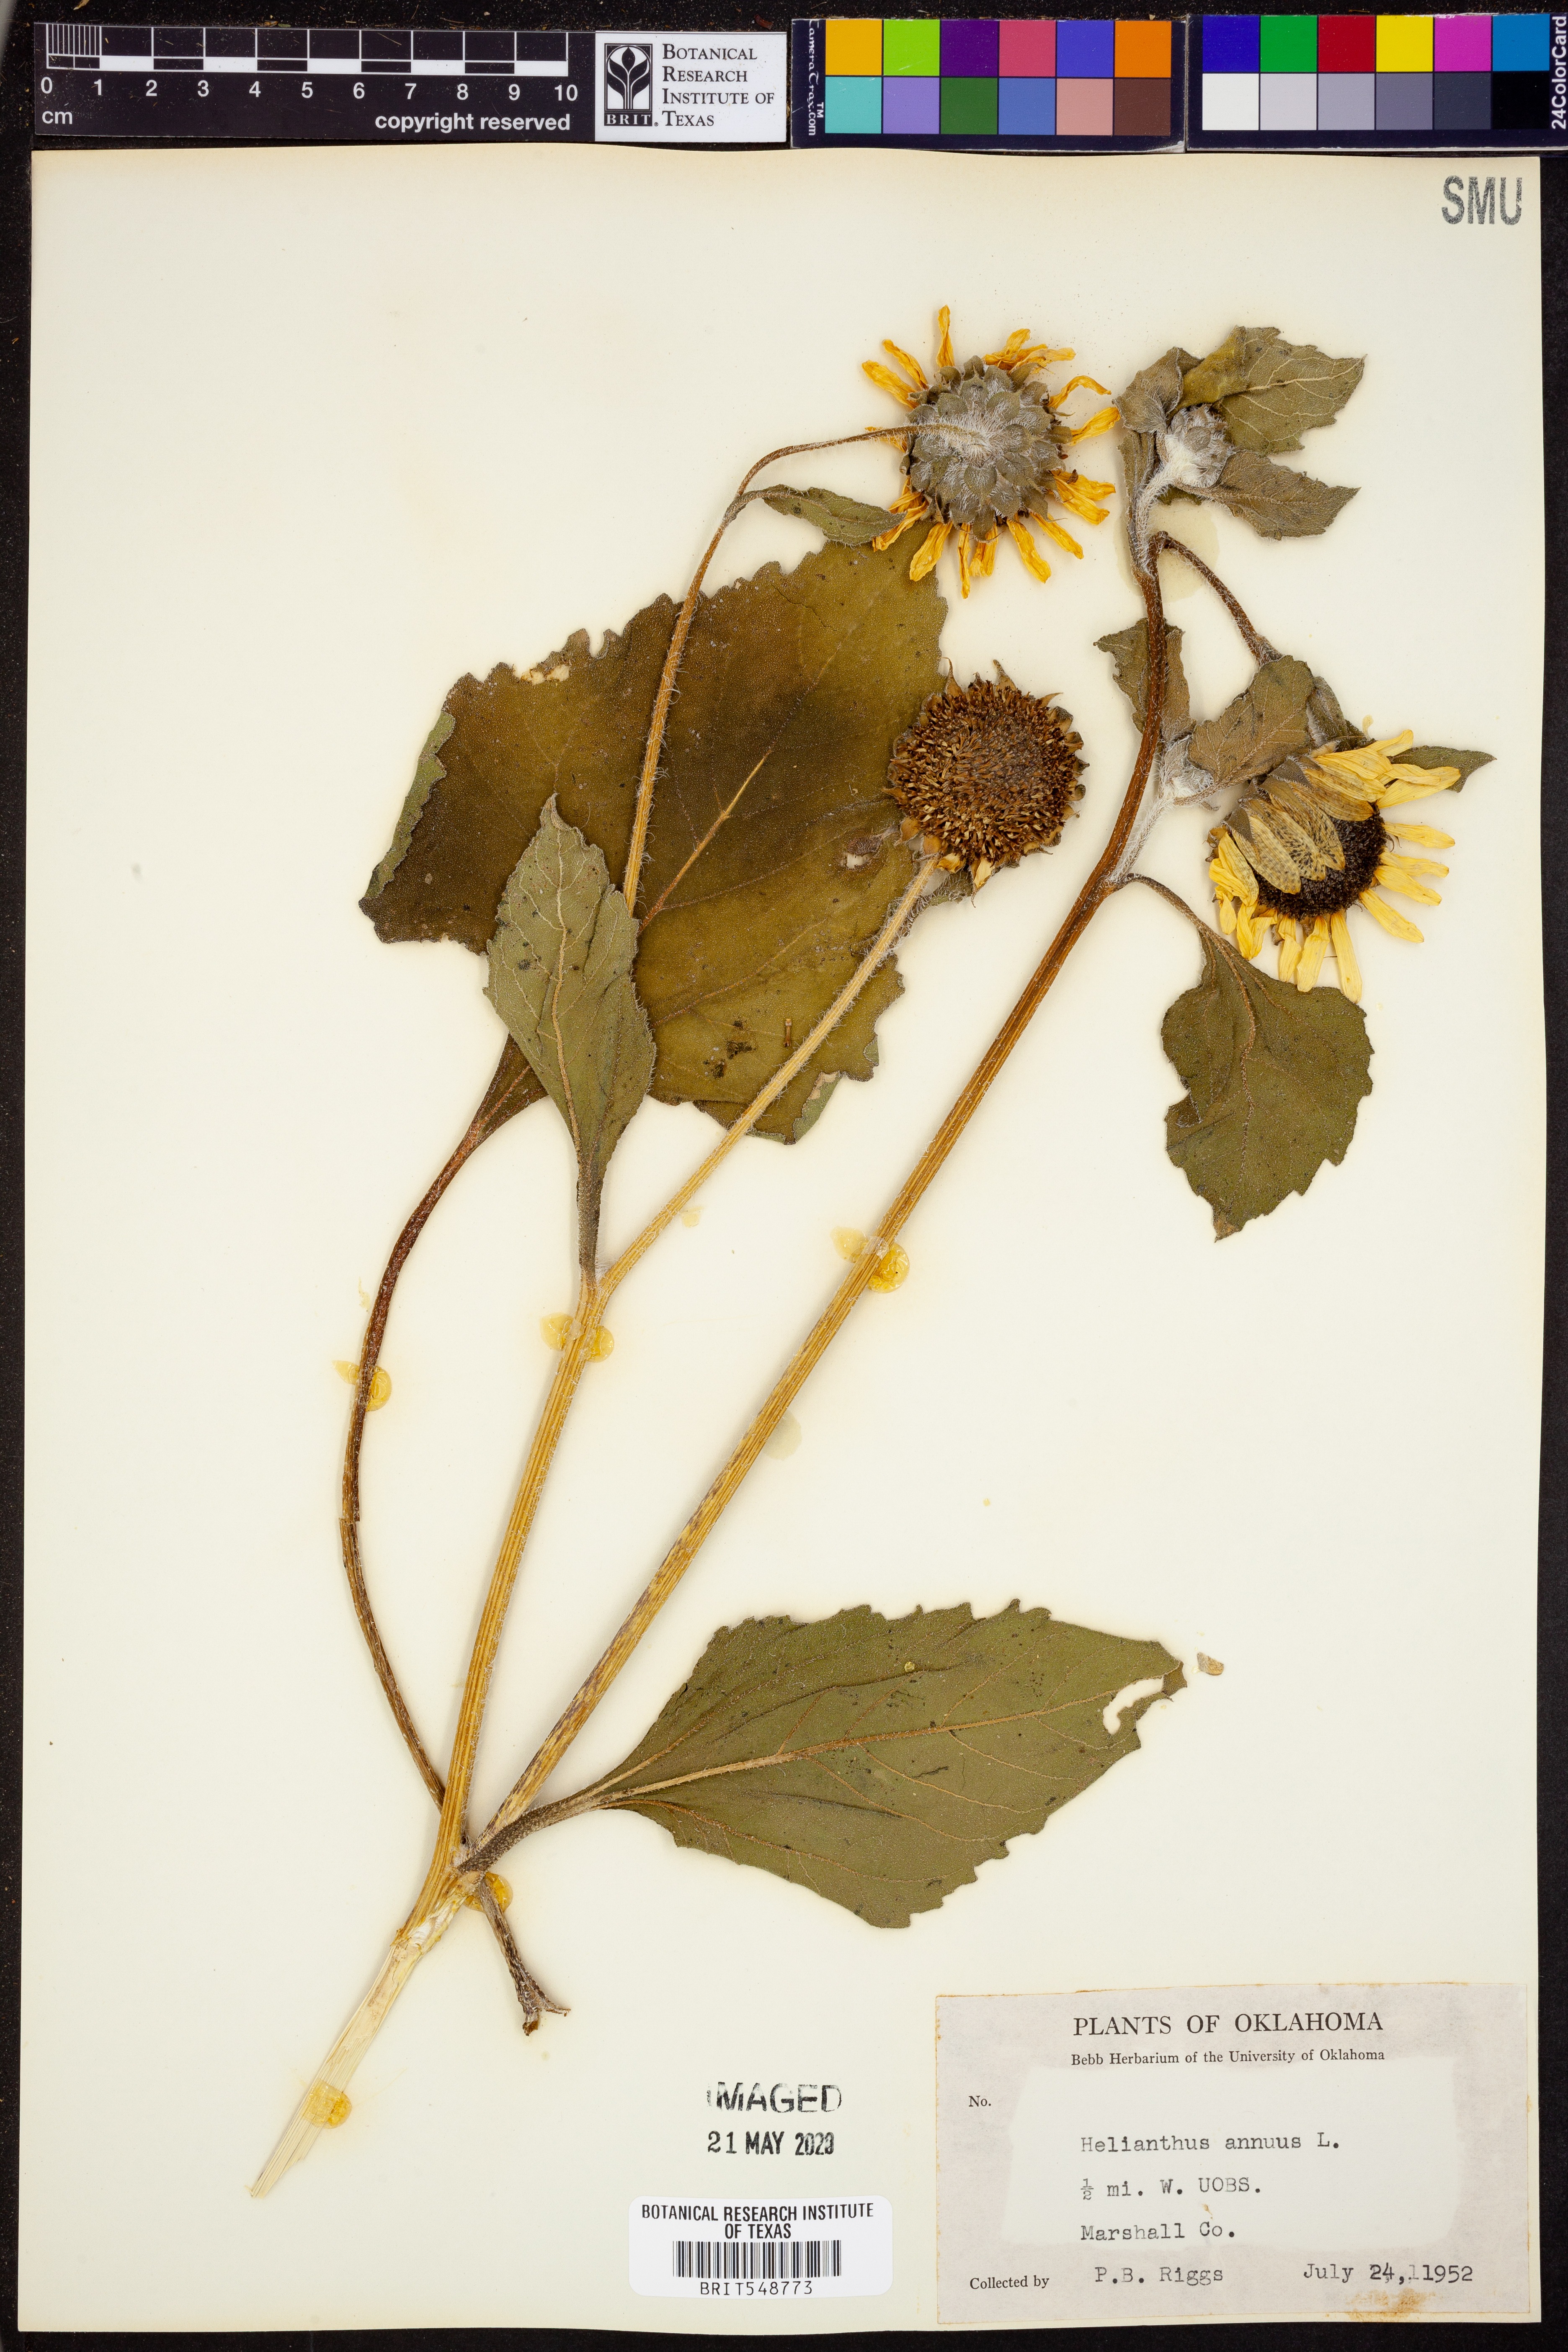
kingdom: Plantae
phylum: Tracheophyta
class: Magnoliopsida
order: Asterales
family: Asteraceae
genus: Helianthus
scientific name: Helianthus annuus
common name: Sunflower
